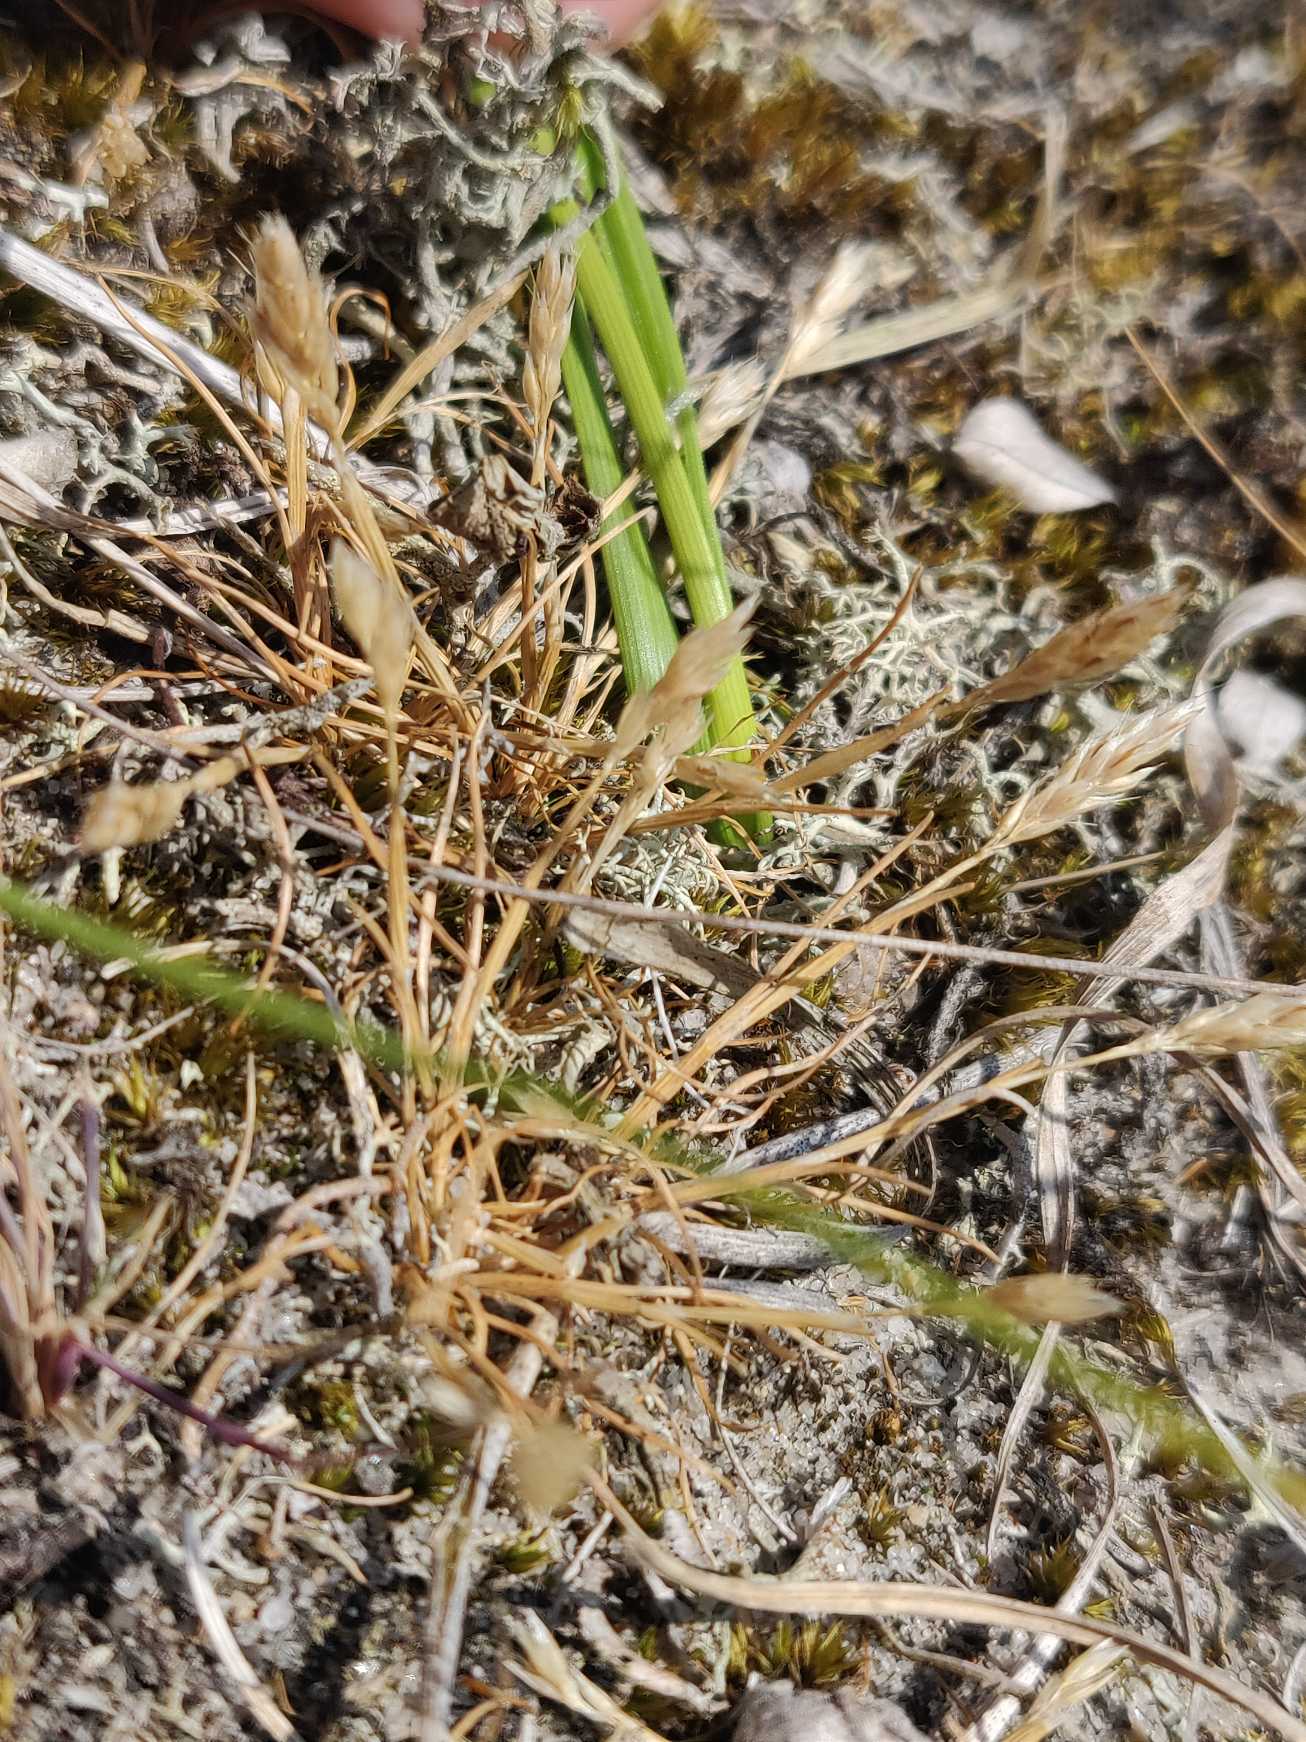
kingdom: Plantae
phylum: Tracheophyta
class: Liliopsida
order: Poales
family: Poaceae
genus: Aira
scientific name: Aira praecox
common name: Tidlig dværgbunke
